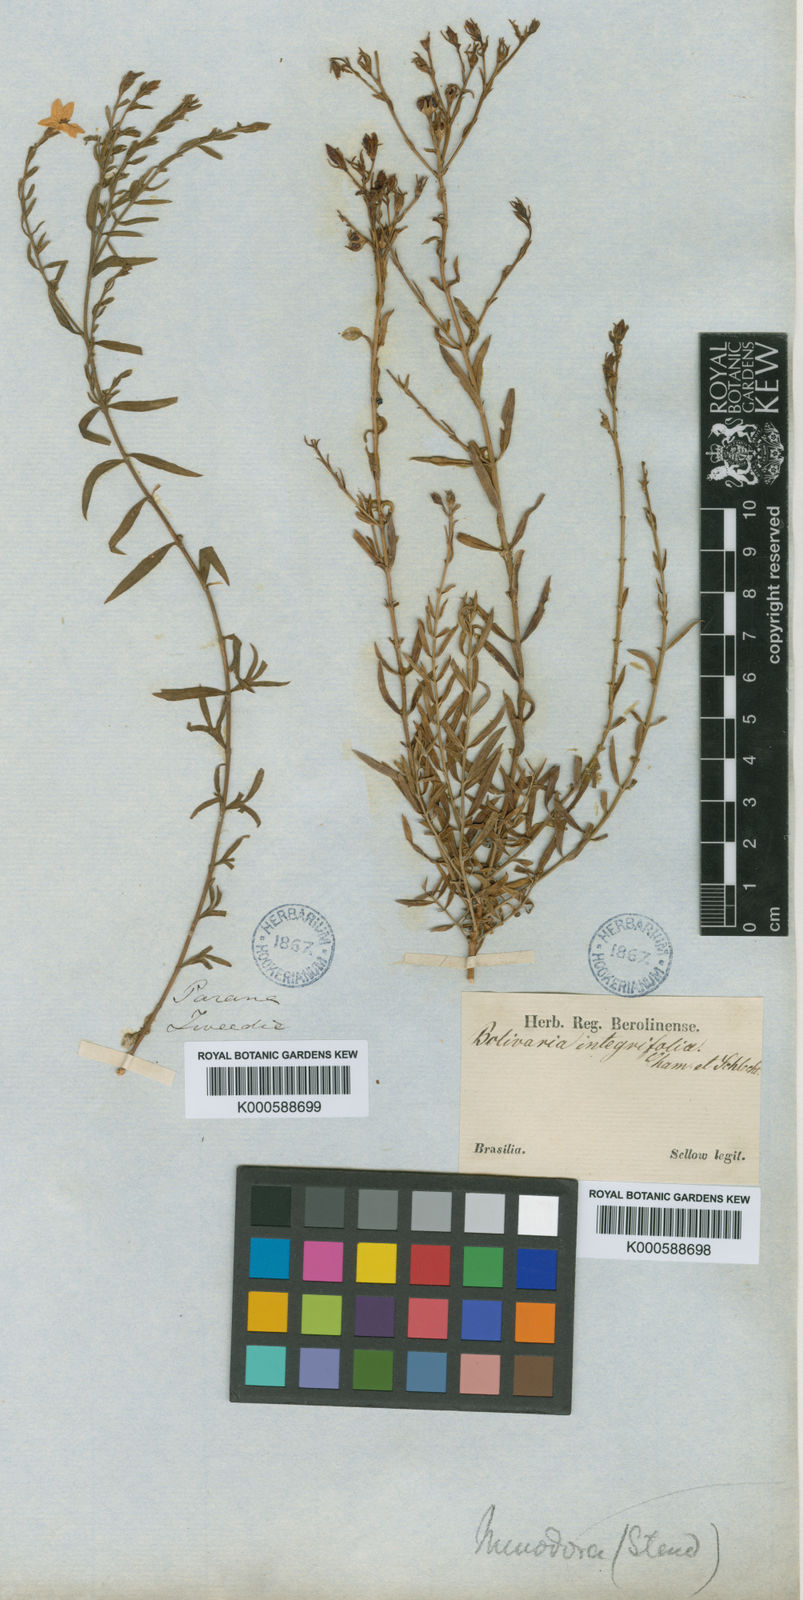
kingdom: Plantae
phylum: Tracheophyta
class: Magnoliopsida
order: Lamiales
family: Oleaceae
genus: Menodora
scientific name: Menodora integrifolia
